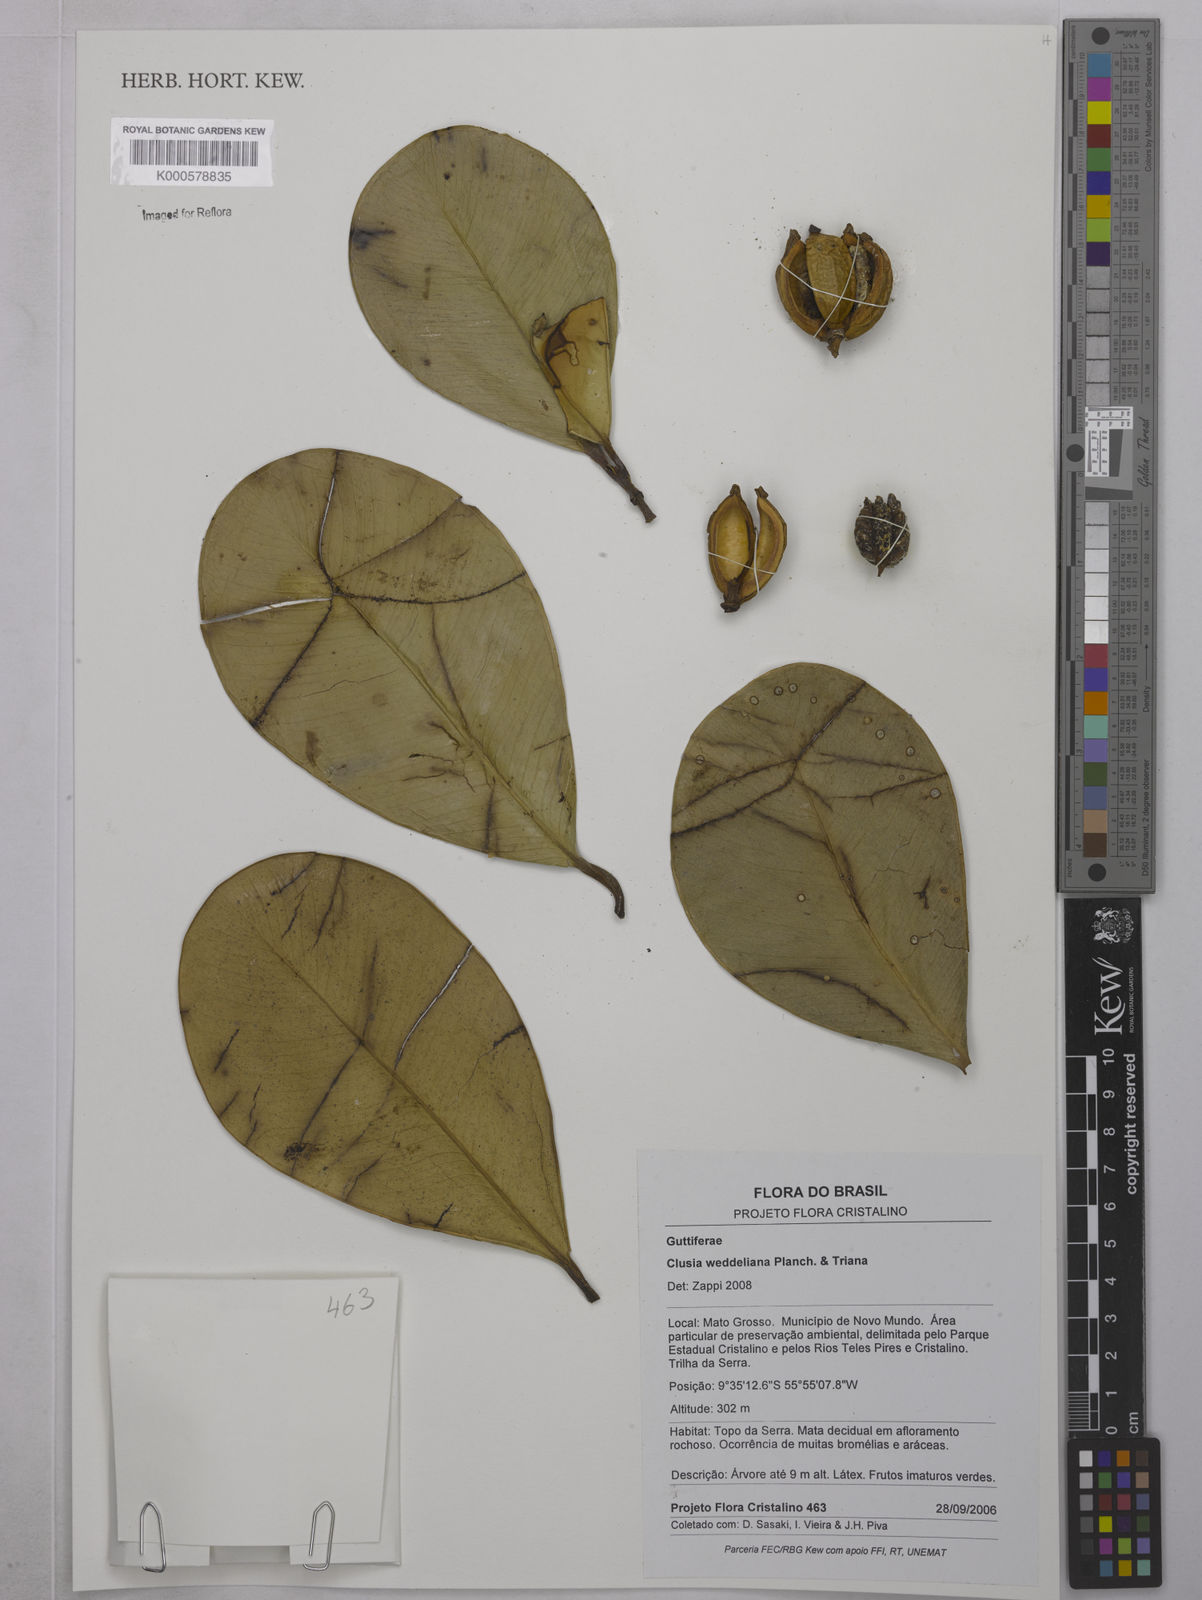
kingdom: Plantae
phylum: Tracheophyta
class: Magnoliopsida
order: Malpighiales
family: Clusiaceae
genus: Clusia
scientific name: Clusia weddelliana
